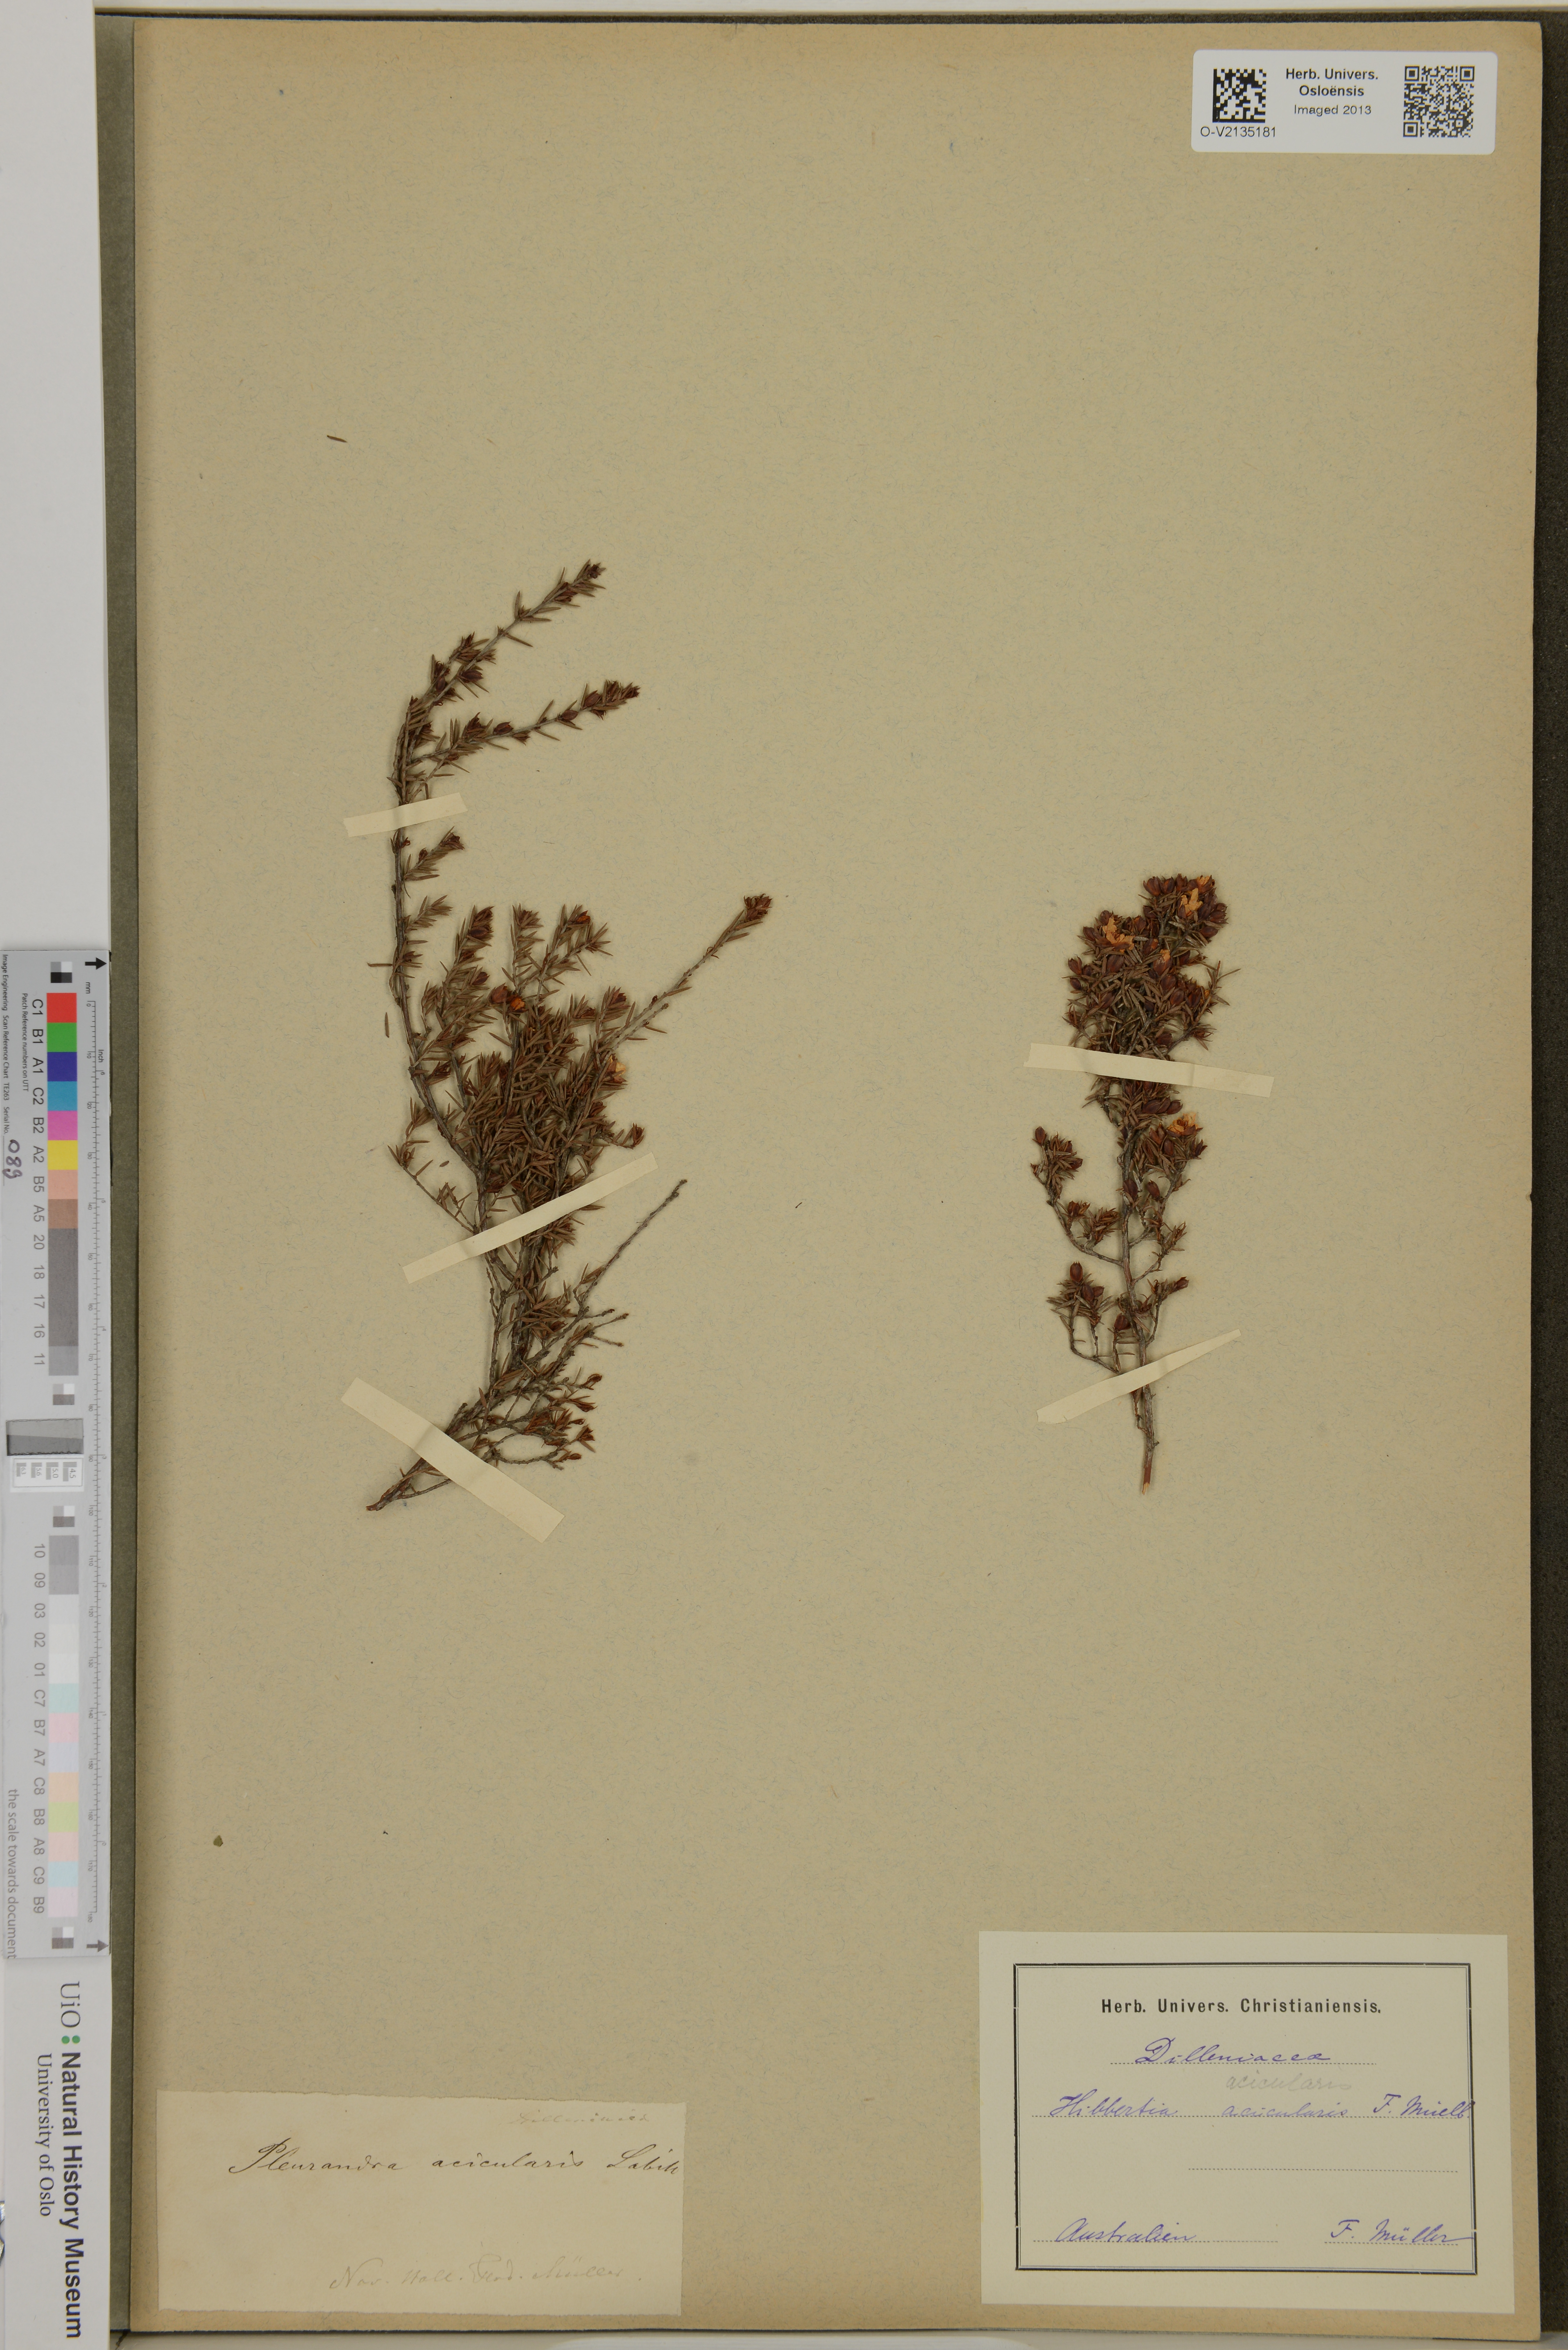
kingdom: Plantae
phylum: Tracheophyta
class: Magnoliopsida
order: Dilleniales
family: Dilleniaceae
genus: Hibbertia
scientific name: Hibbertia acicularis
